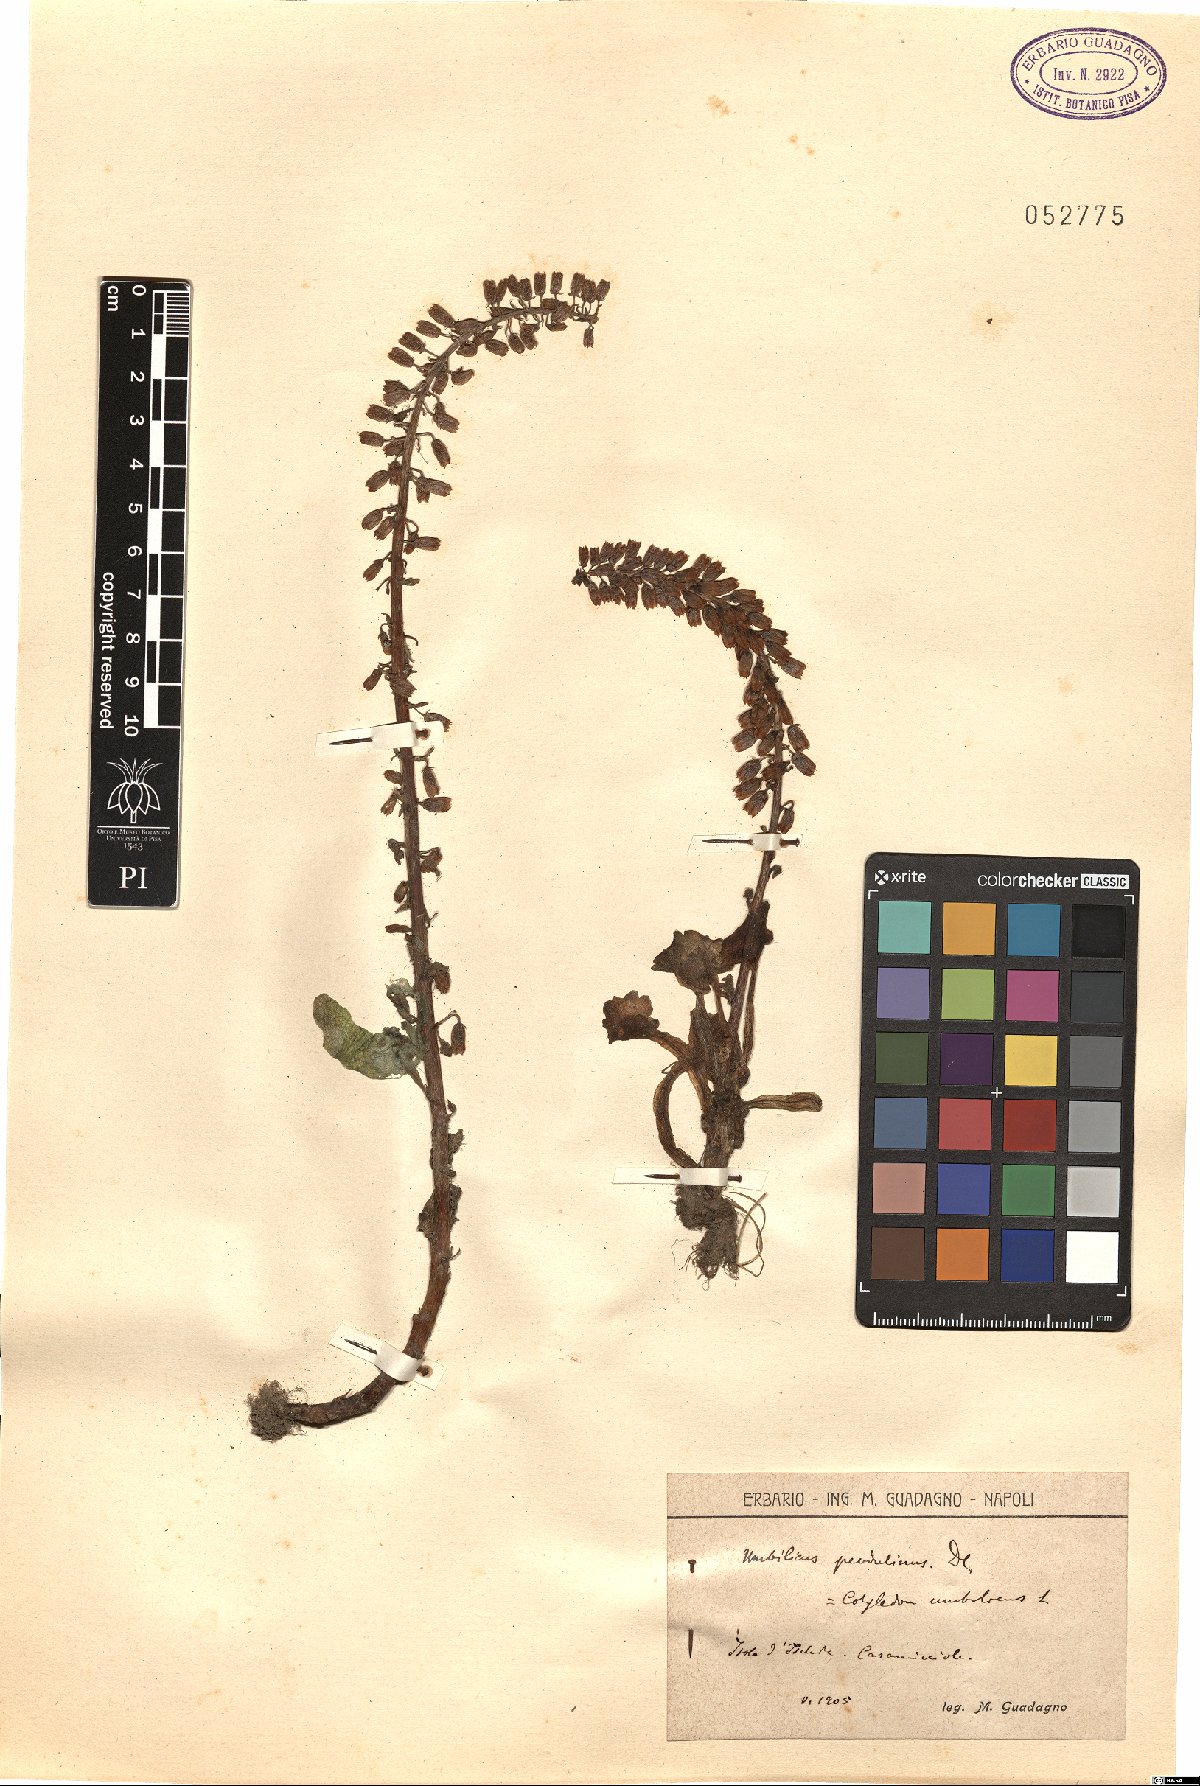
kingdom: Plantae
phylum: Tracheophyta
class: Magnoliopsida
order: Saxifragales
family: Crassulaceae
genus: Umbilicus
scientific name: Umbilicus rupestris
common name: Navelwort
